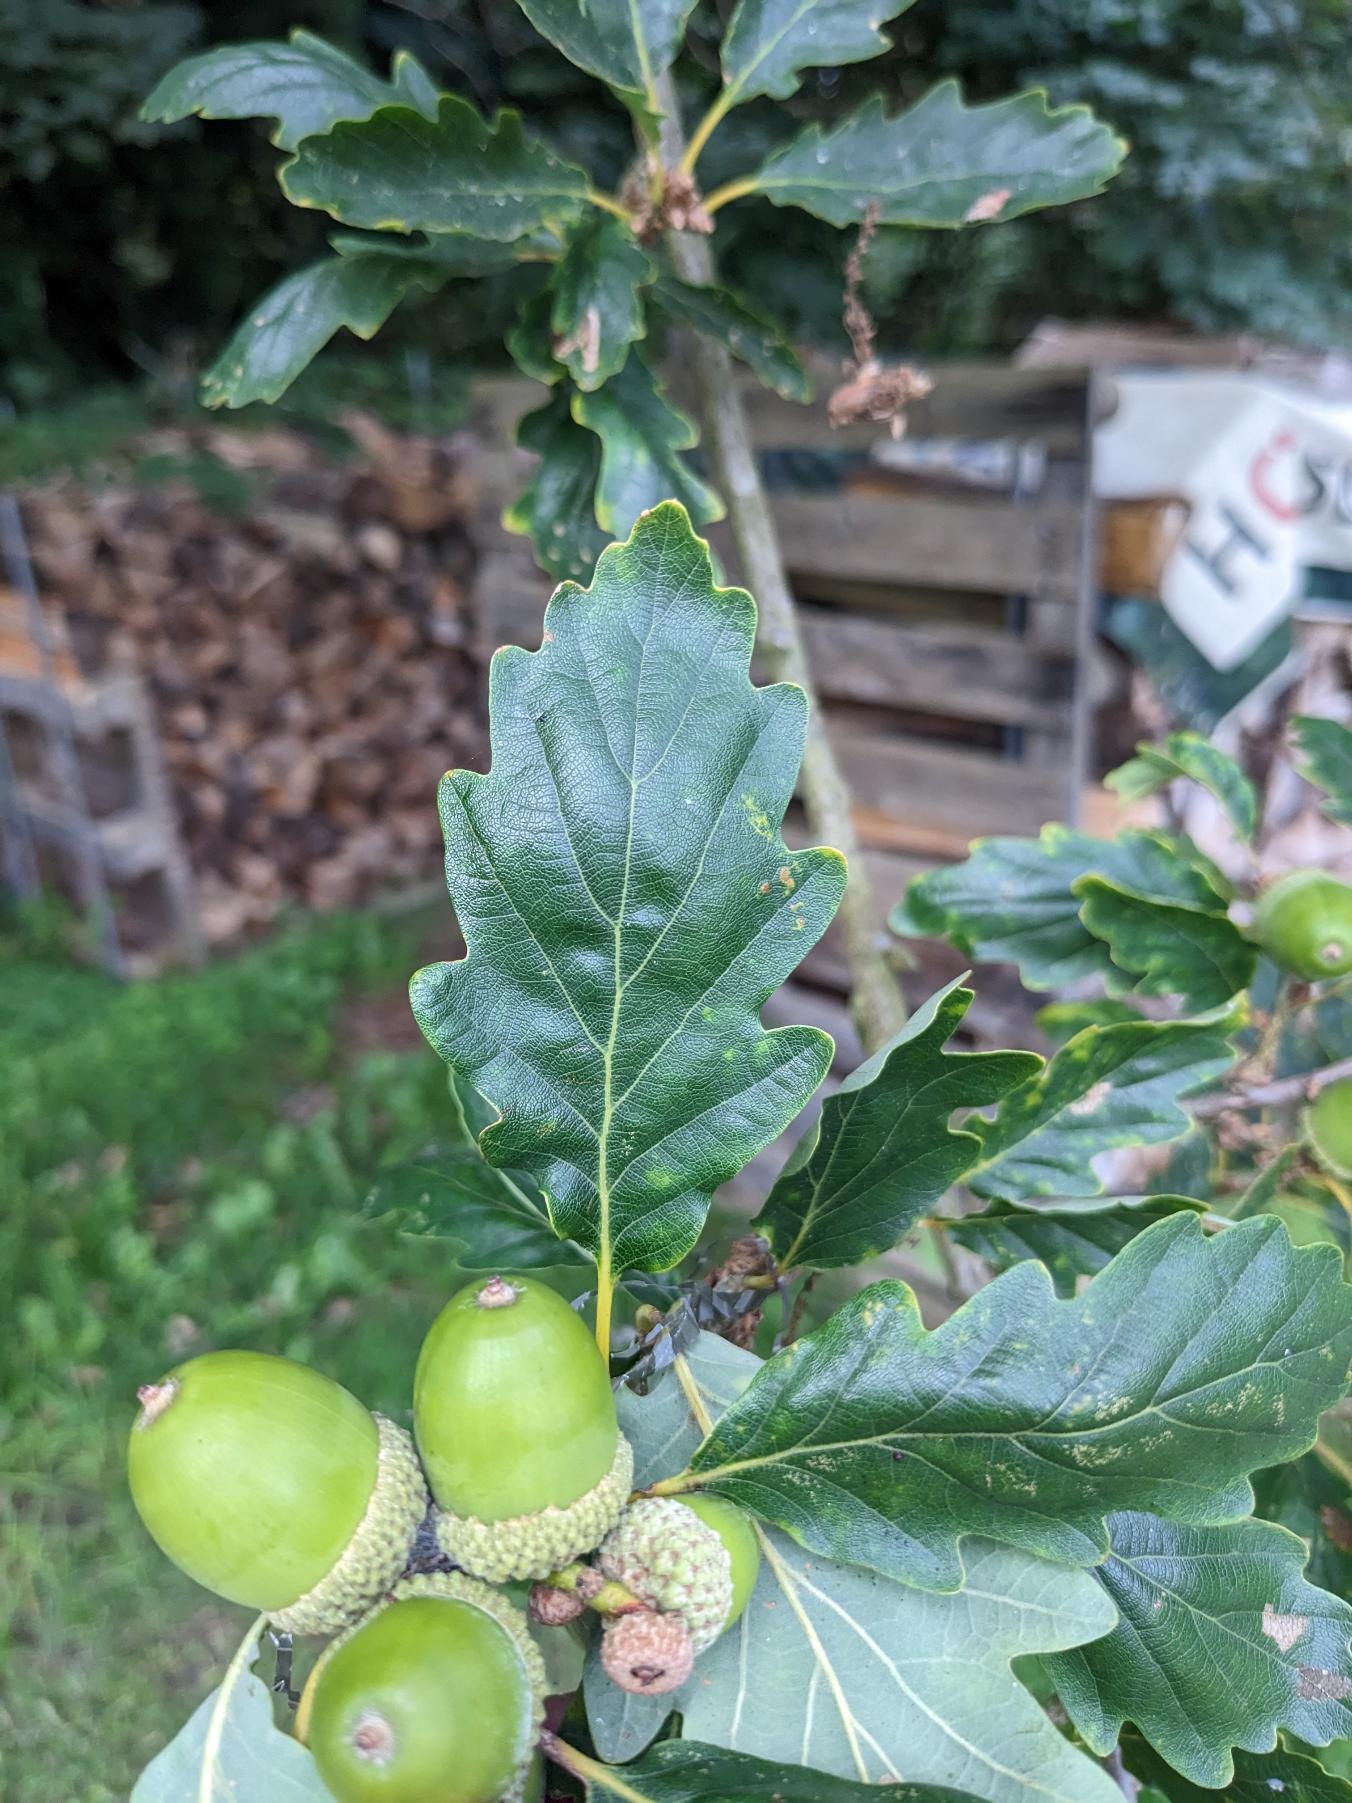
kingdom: Plantae
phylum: Tracheophyta
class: Magnoliopsida
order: Fagales
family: Fagaceae
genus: Quercus
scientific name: Quercus petraea
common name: Vinter-eg
